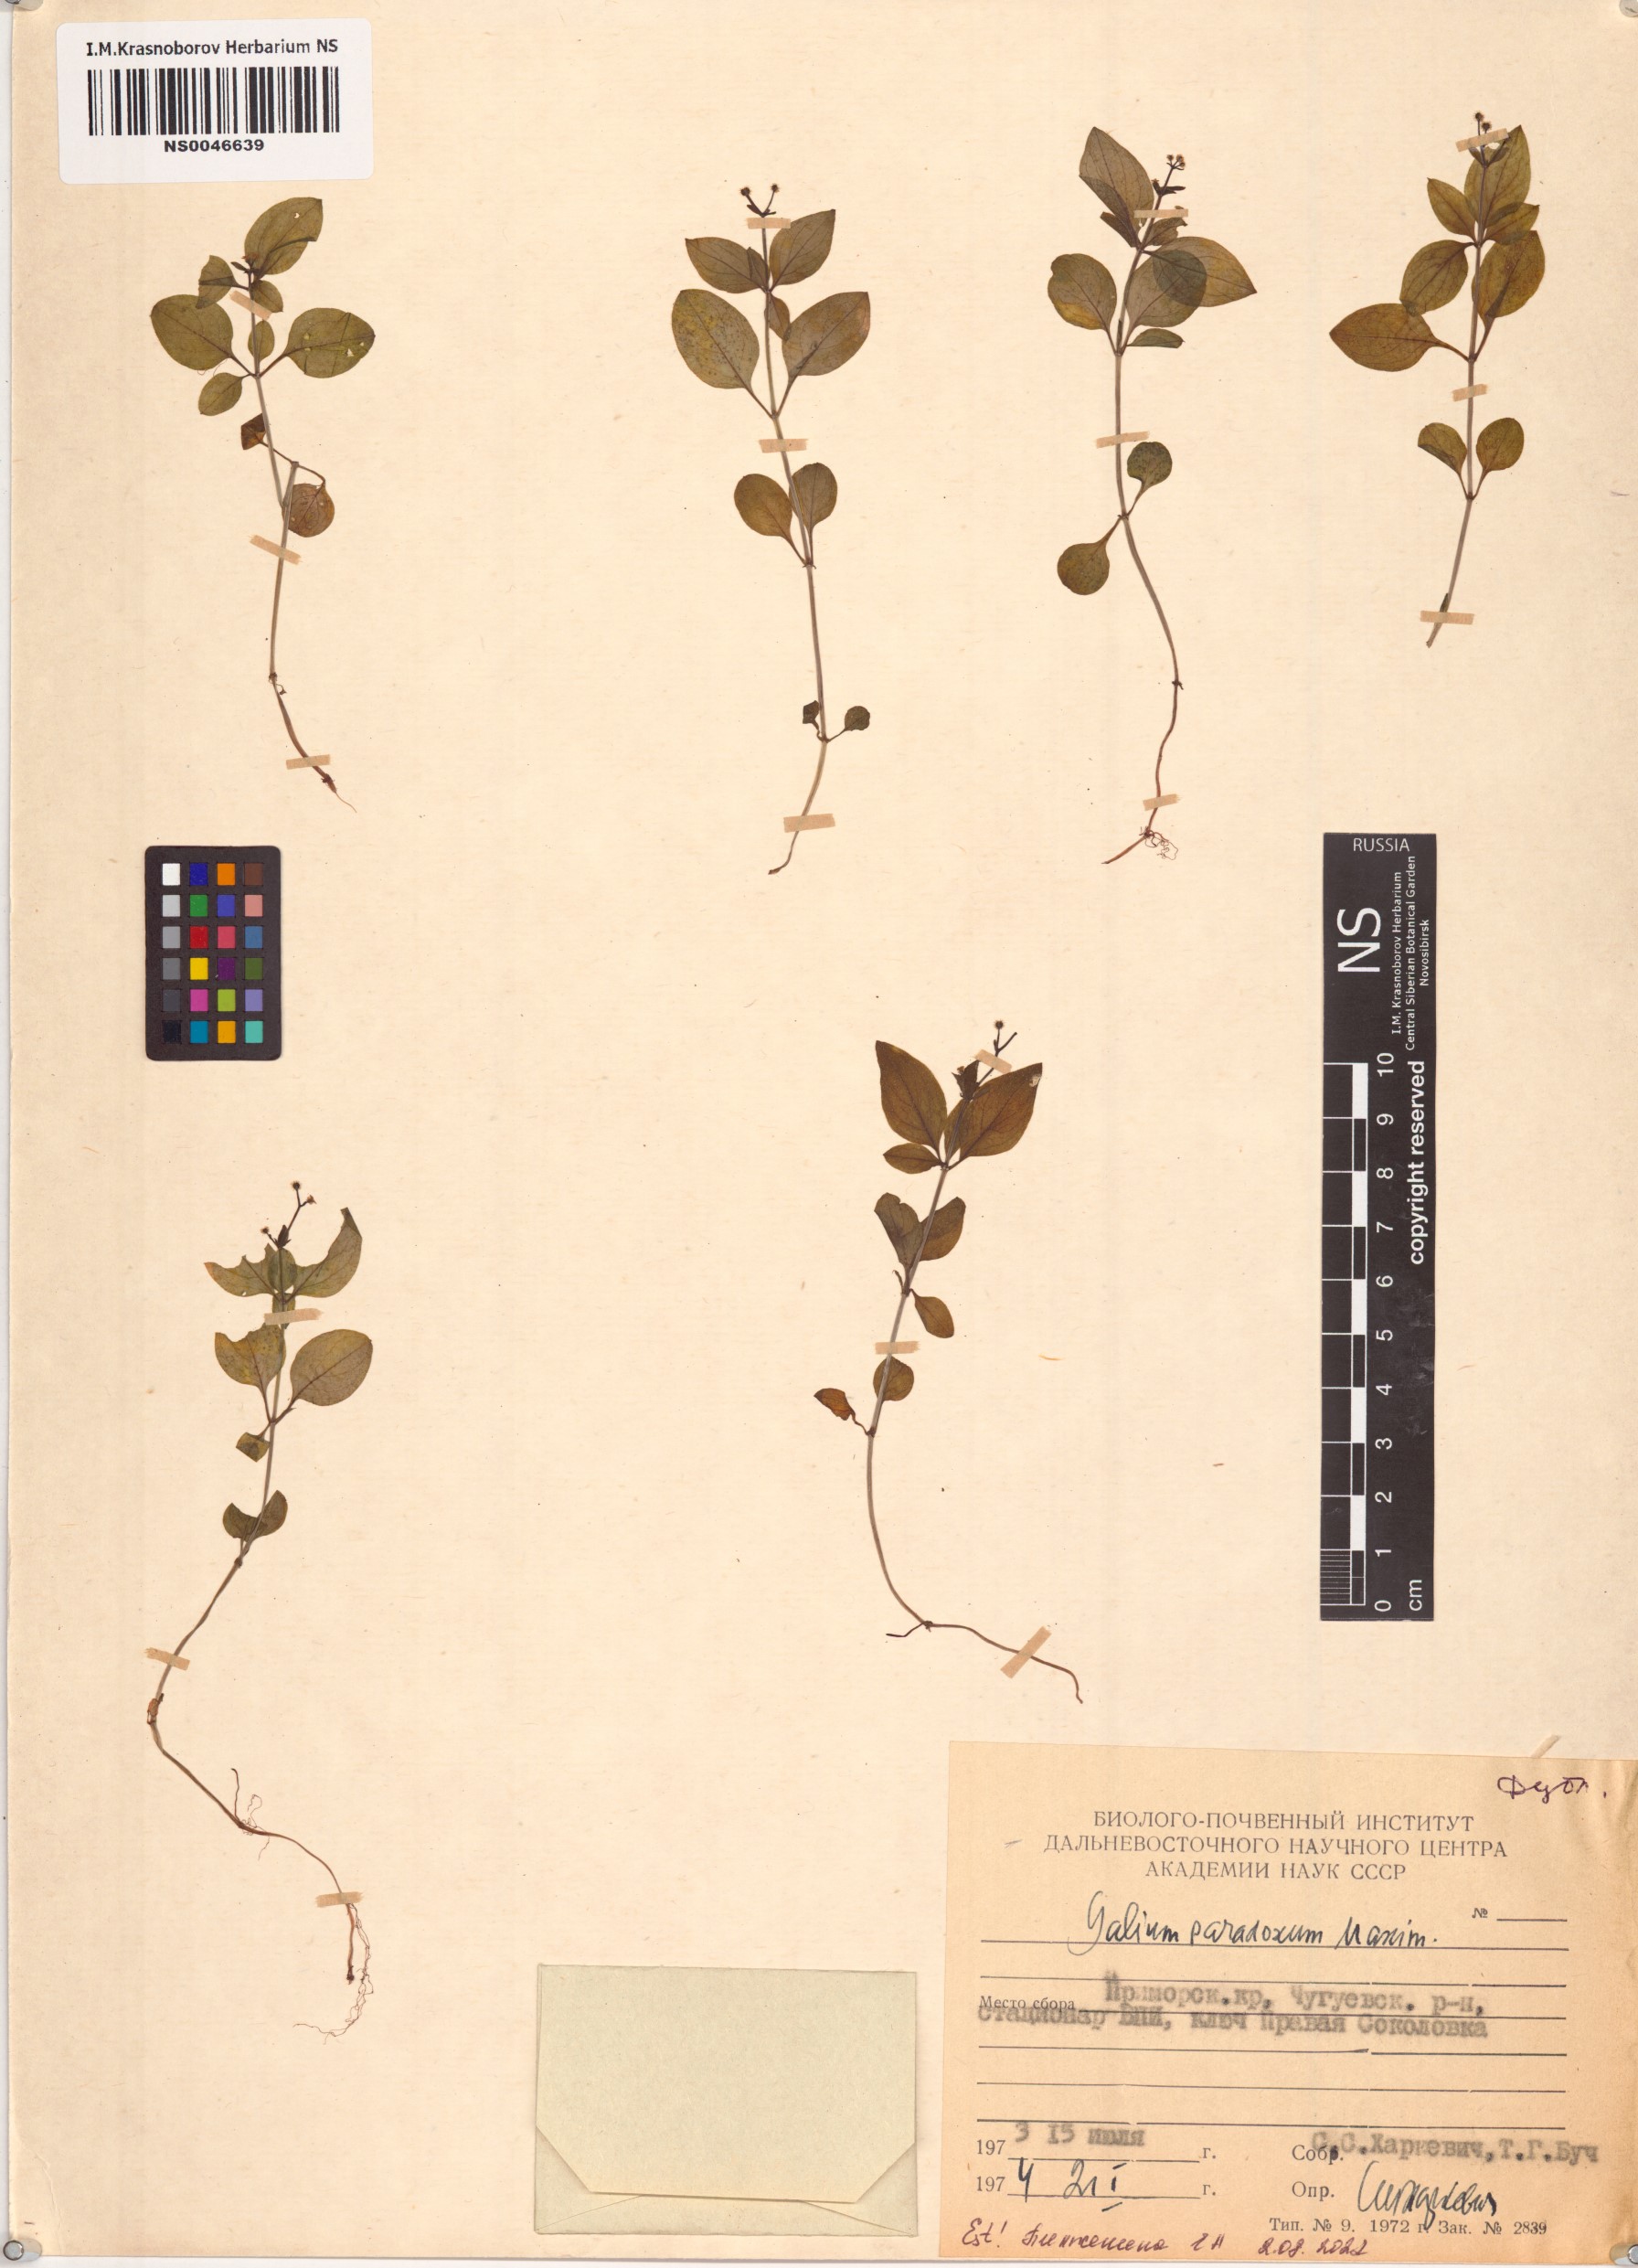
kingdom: Plantae
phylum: Tracheophyta
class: Magnoliopsida
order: Gentianales
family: Rubiaceae
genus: Pseudogalium
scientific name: Pseudogalium paradoxum
